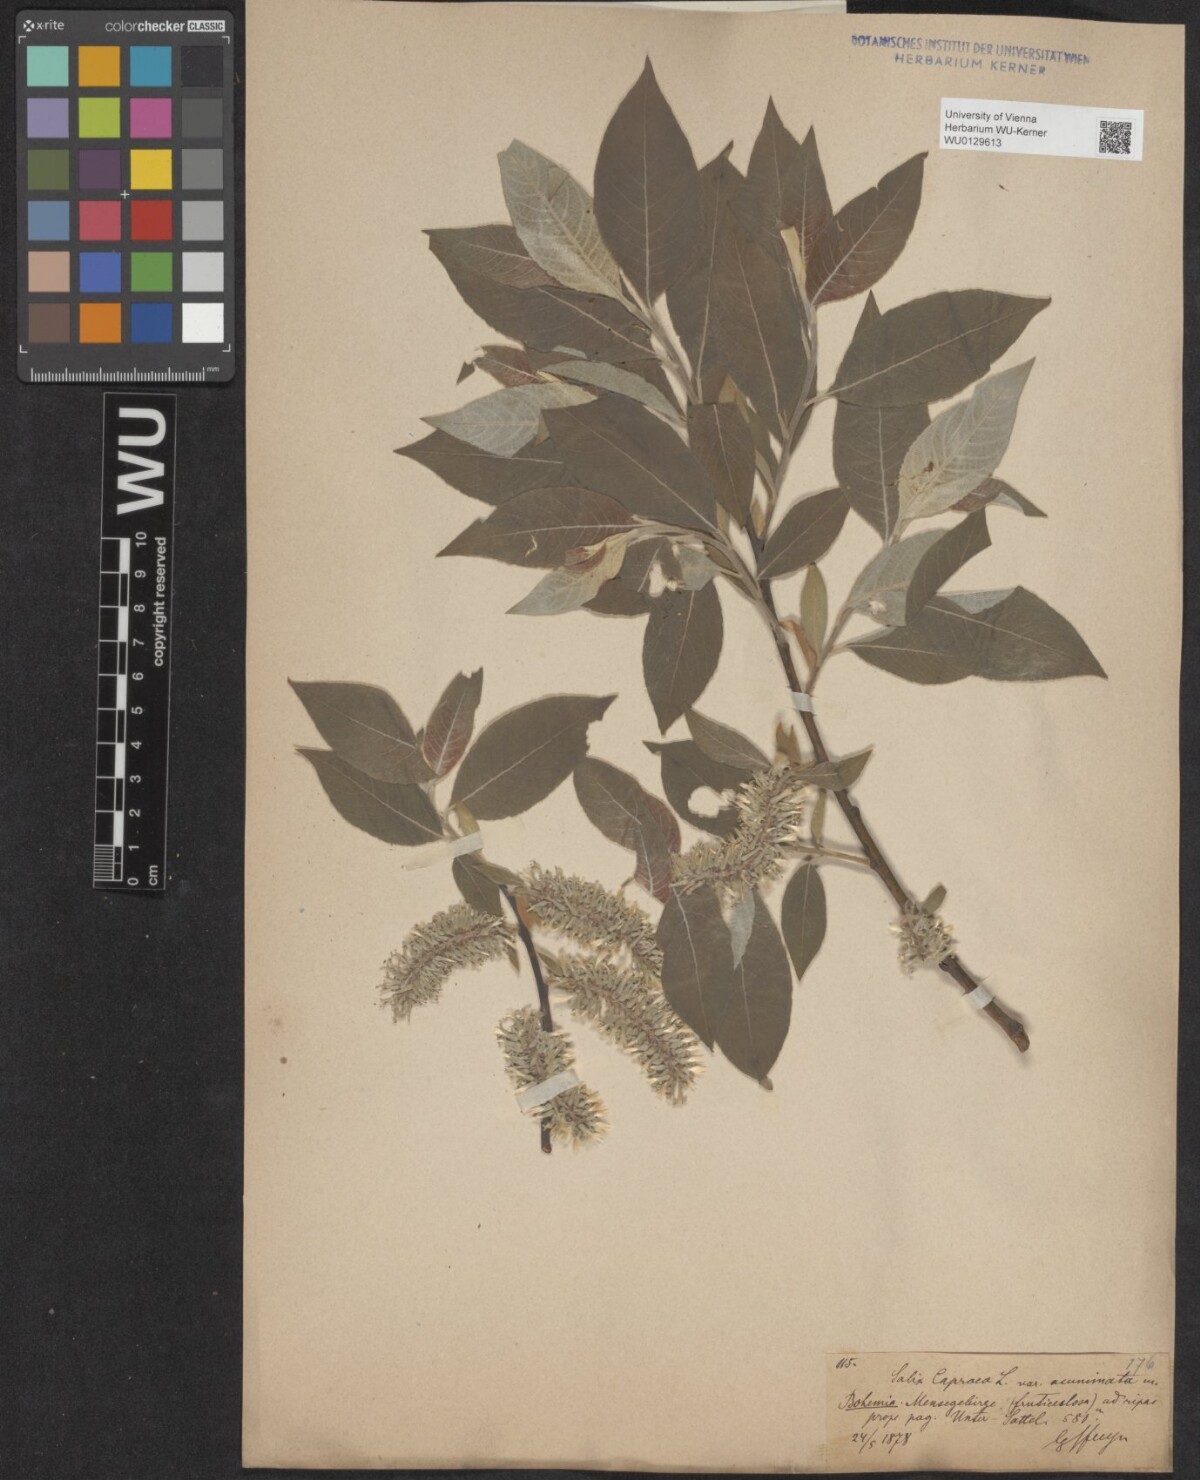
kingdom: Plantae
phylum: Tracheophyta
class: Magnoliopsida
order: Malpighiales
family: Salicaceae
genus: Salix
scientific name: Salix caprea
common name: Goat willow
